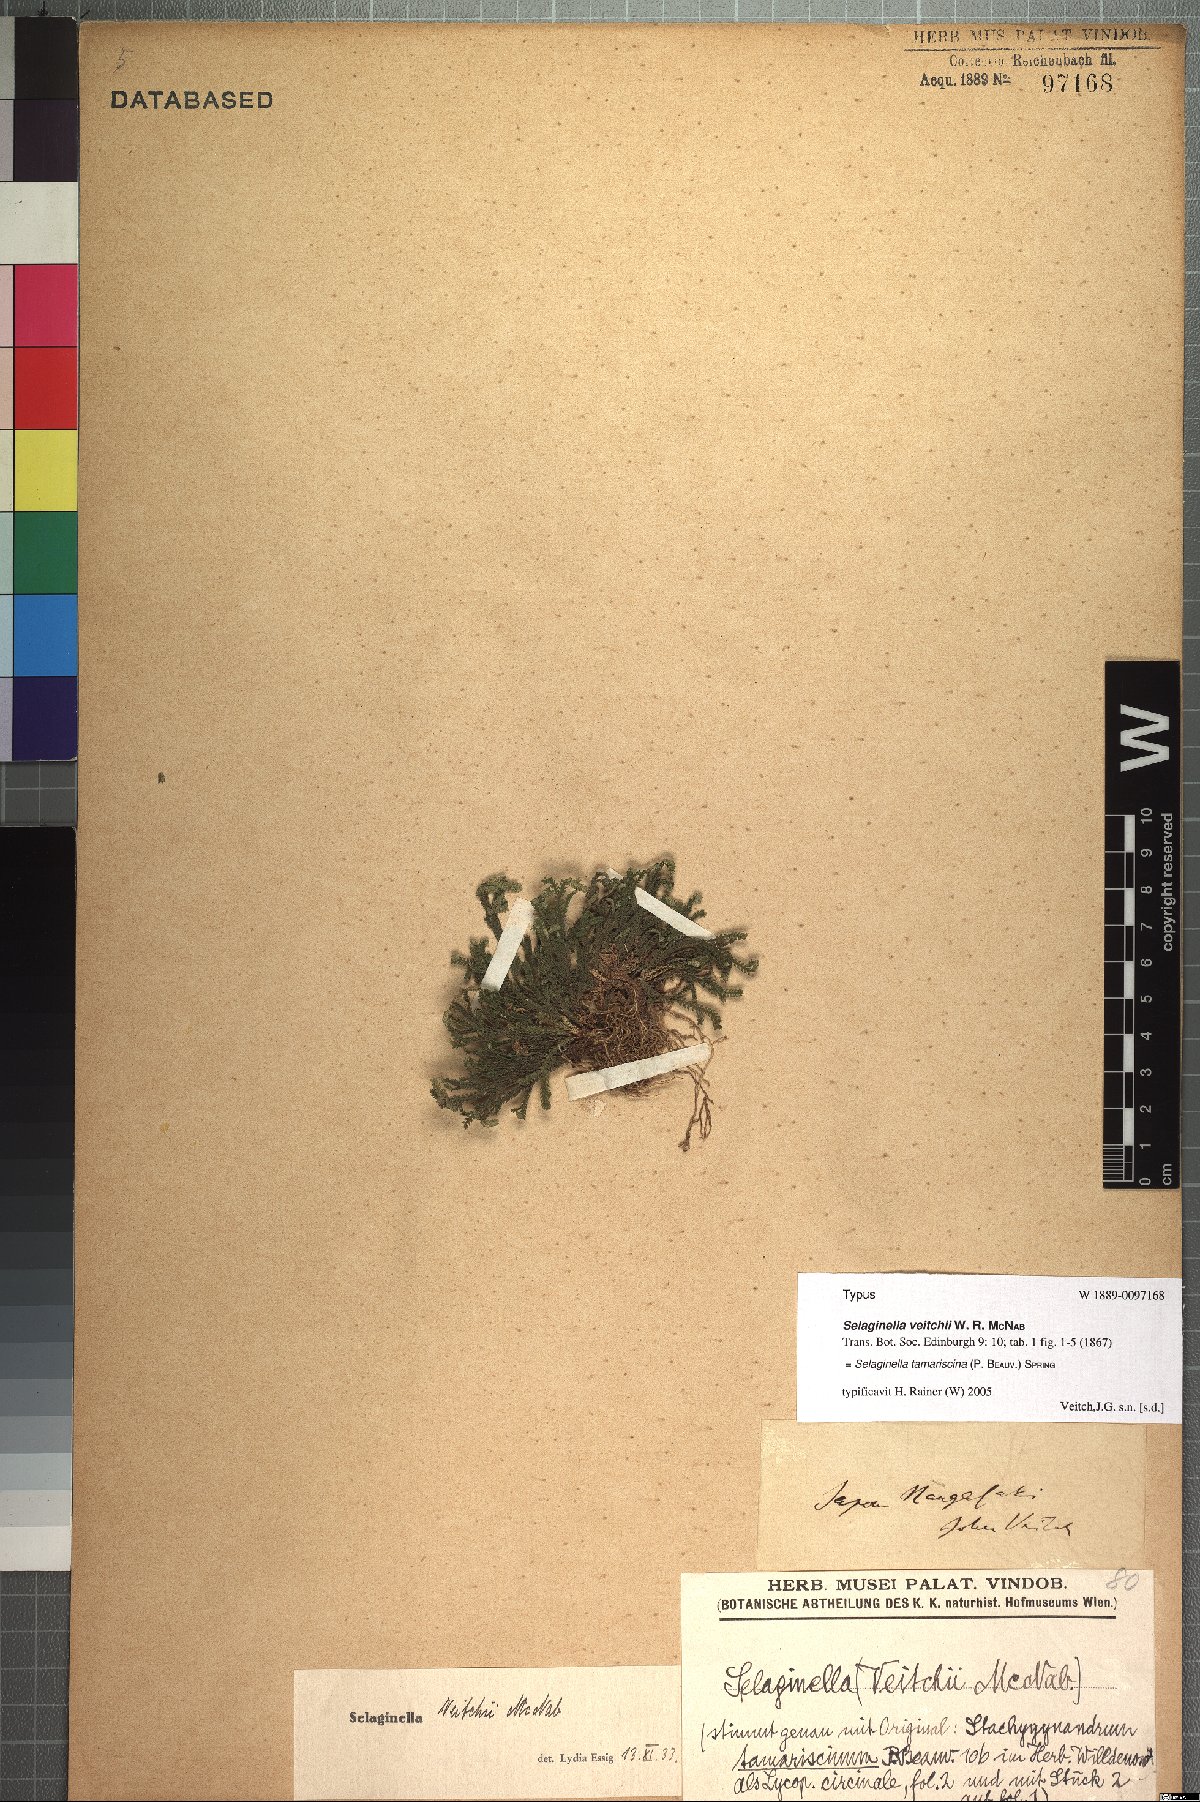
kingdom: Plantae
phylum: Tracheophyta
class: Lycopodiopsida
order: Selaginellales
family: Selaginellaceae
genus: Selaginella
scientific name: Selaginella tamariscina
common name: Little-club-moss
